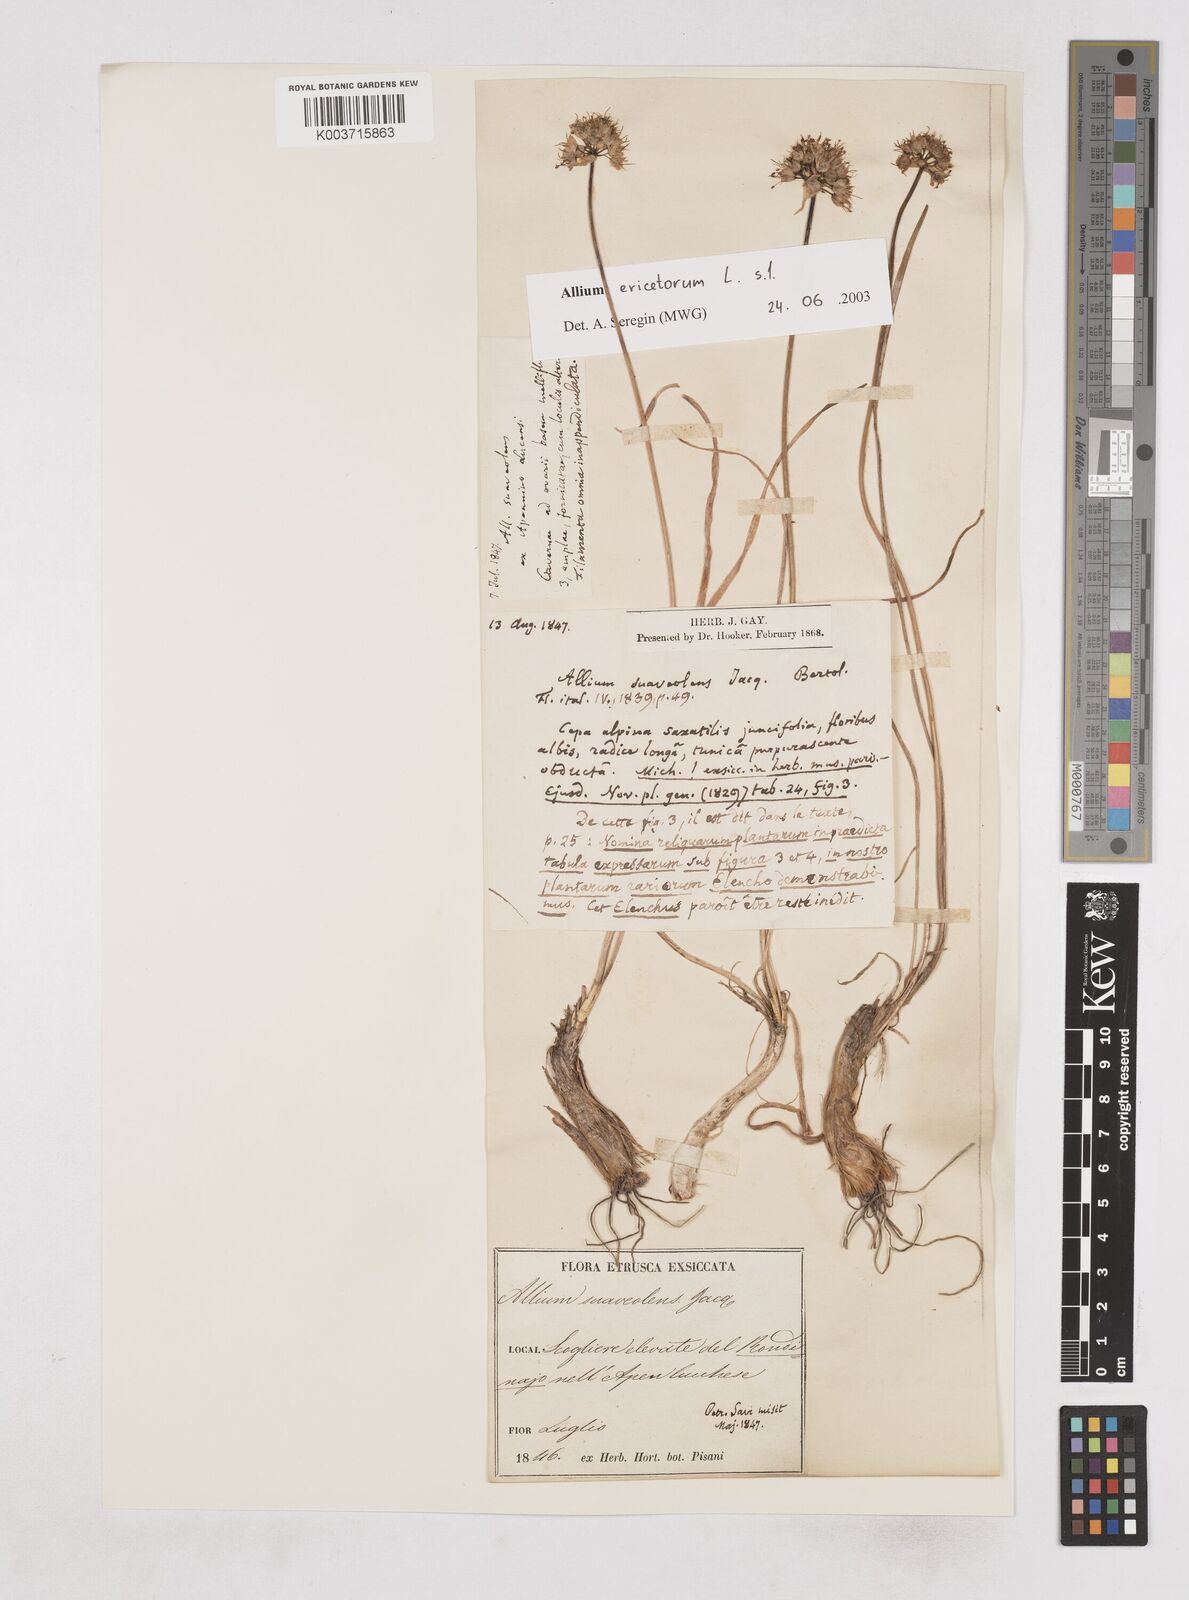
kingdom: Plantae
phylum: Tracheophyta
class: Liliopsida
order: Asparagales
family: Amaryllidaceae
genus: Allium
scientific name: Allium ericetorum
